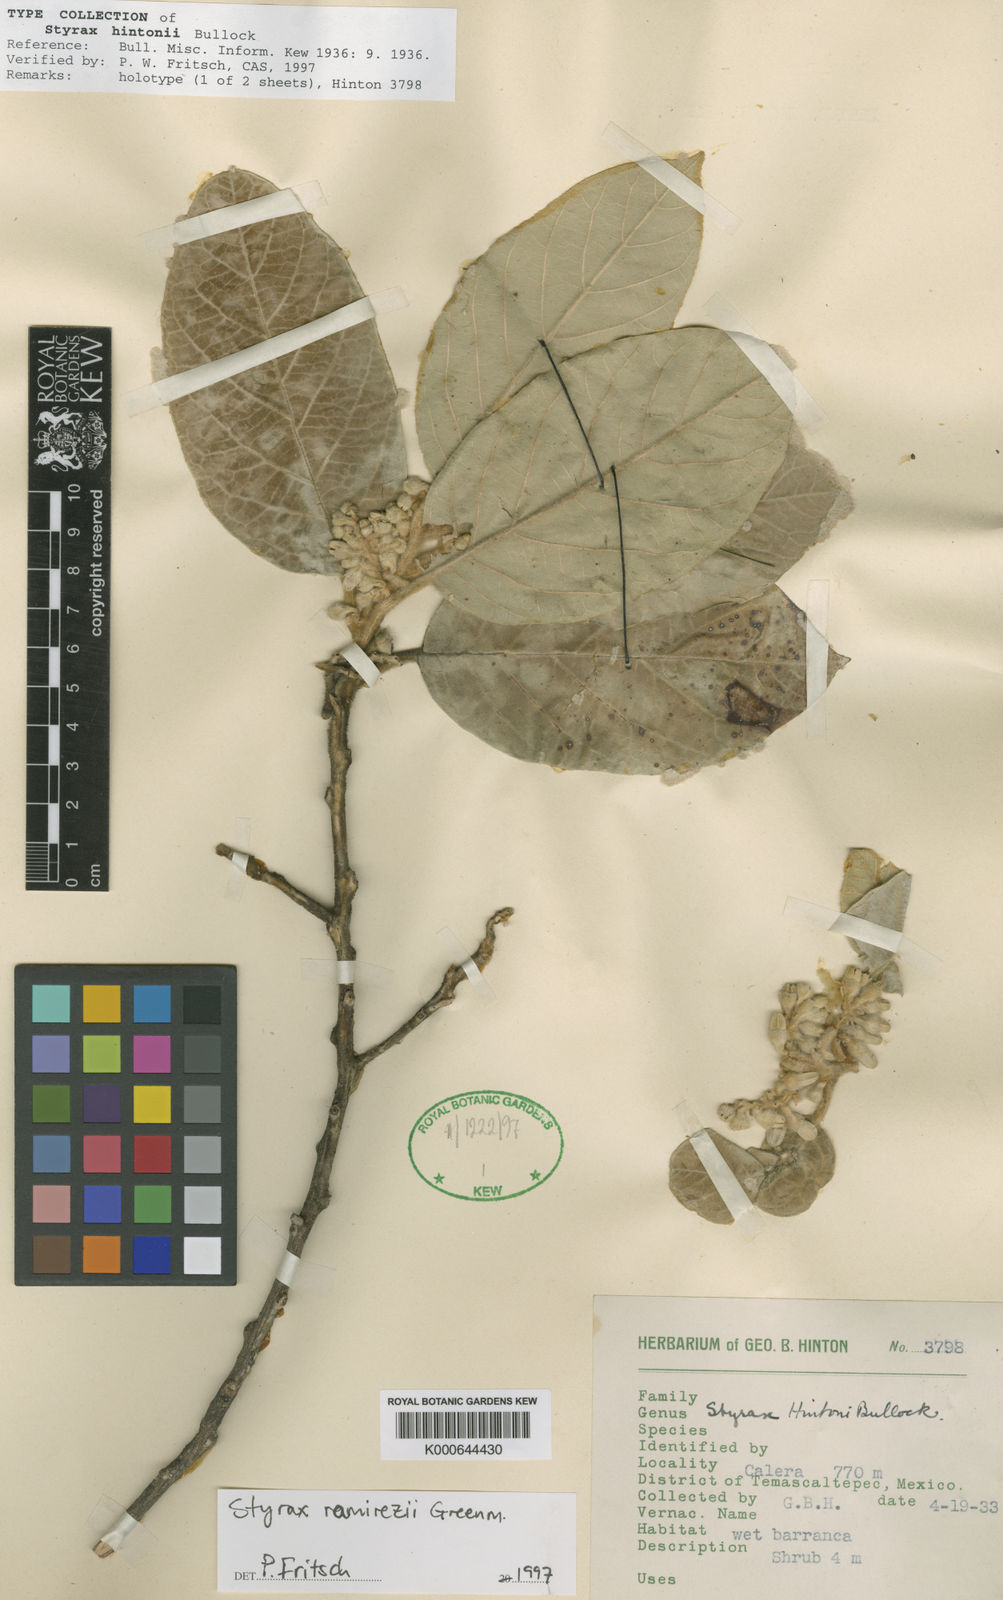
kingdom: Plantae
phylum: Tracheophyta
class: Magnoliopsida
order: Ericales
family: Styracaceae
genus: Styrax
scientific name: Styrax argenteus
